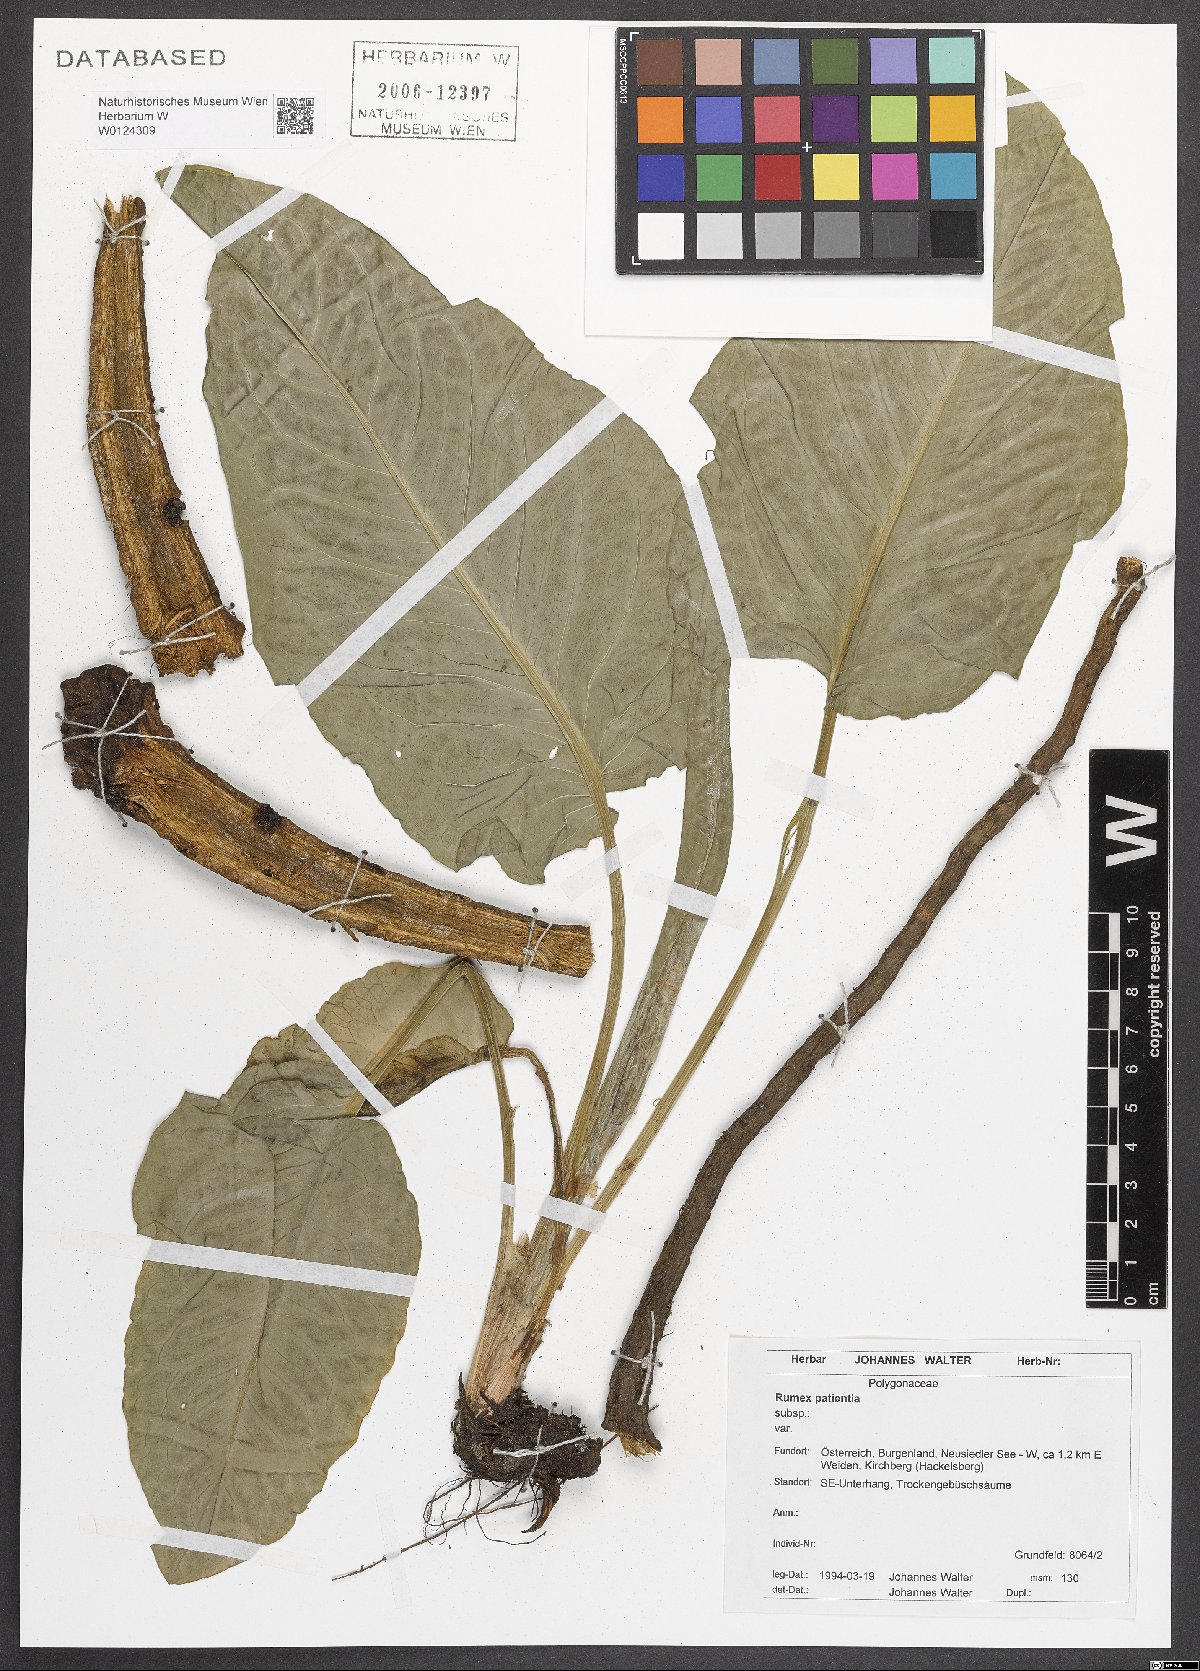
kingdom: Plantae
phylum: Tracheophyta
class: Magnoliopsida
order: Caryophyllales
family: Polygonaceae
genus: Rumex
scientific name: Rumex patientia
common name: Patience dock
